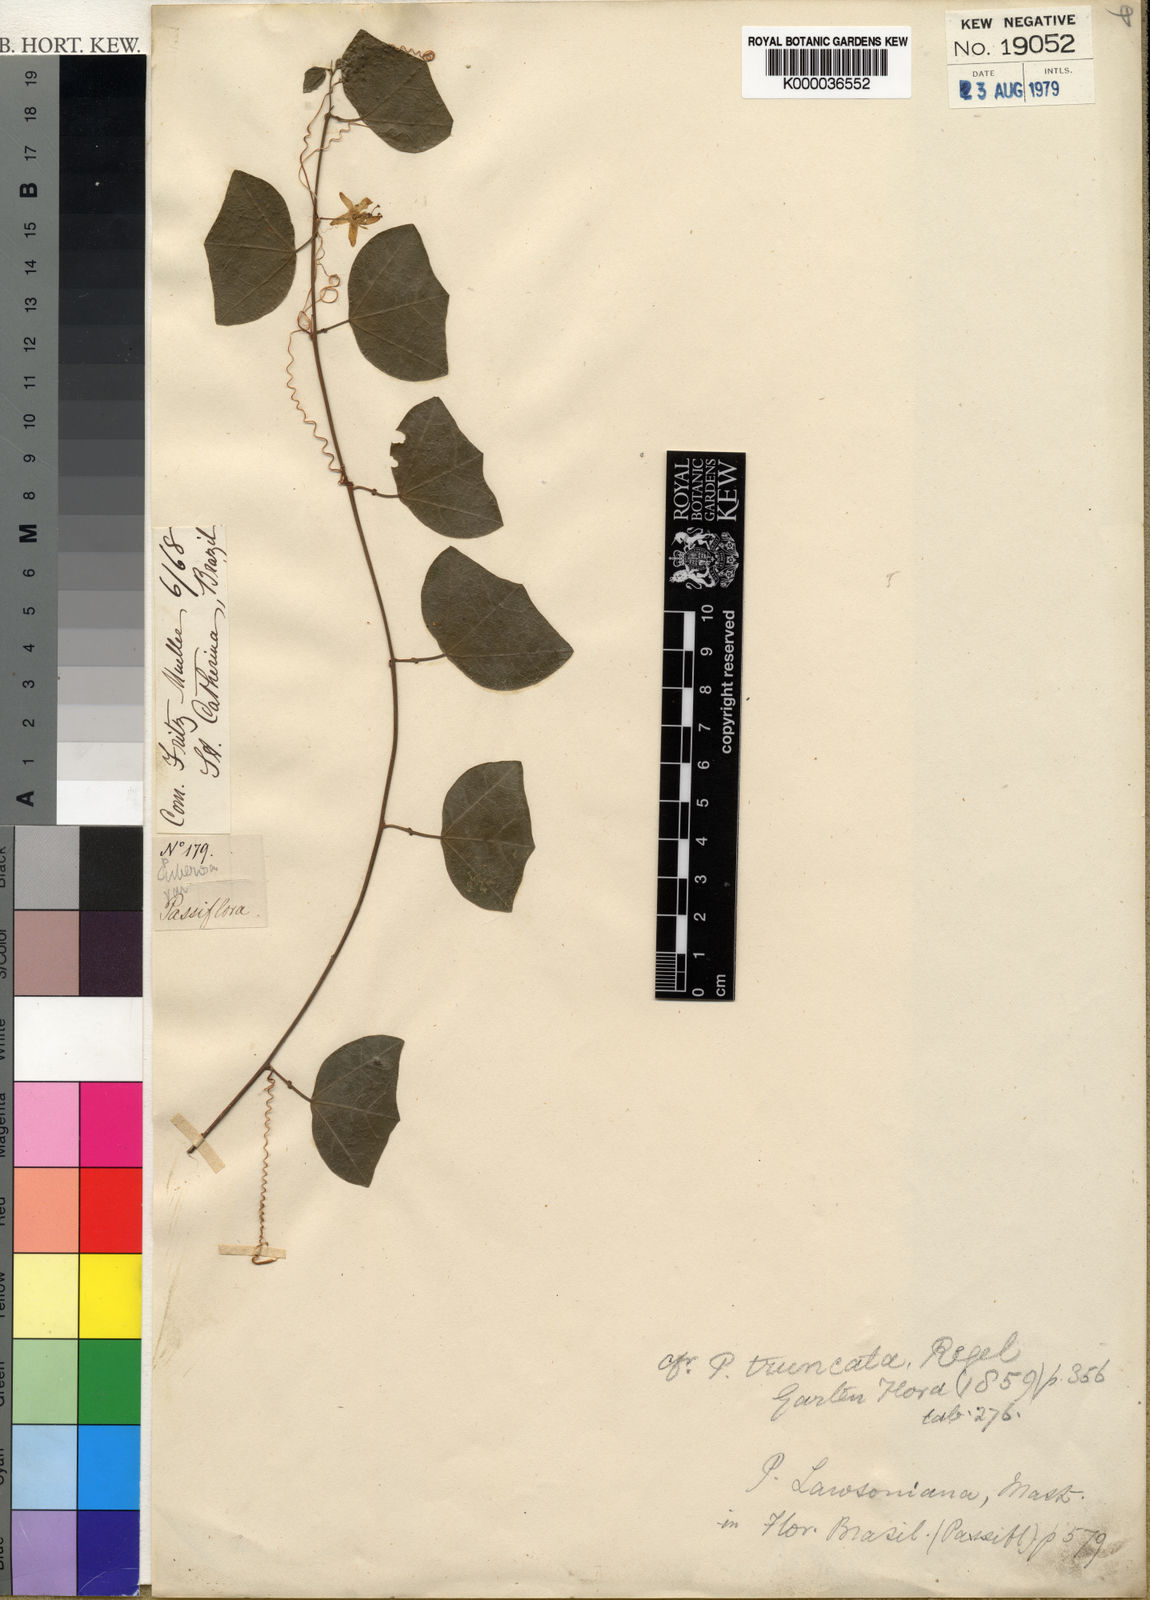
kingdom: Plantae
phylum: Tracheophyta
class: Magnoliopsida
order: Malpighiales
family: Passifloraceae
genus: Passiflora
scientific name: Passiflora truncata
